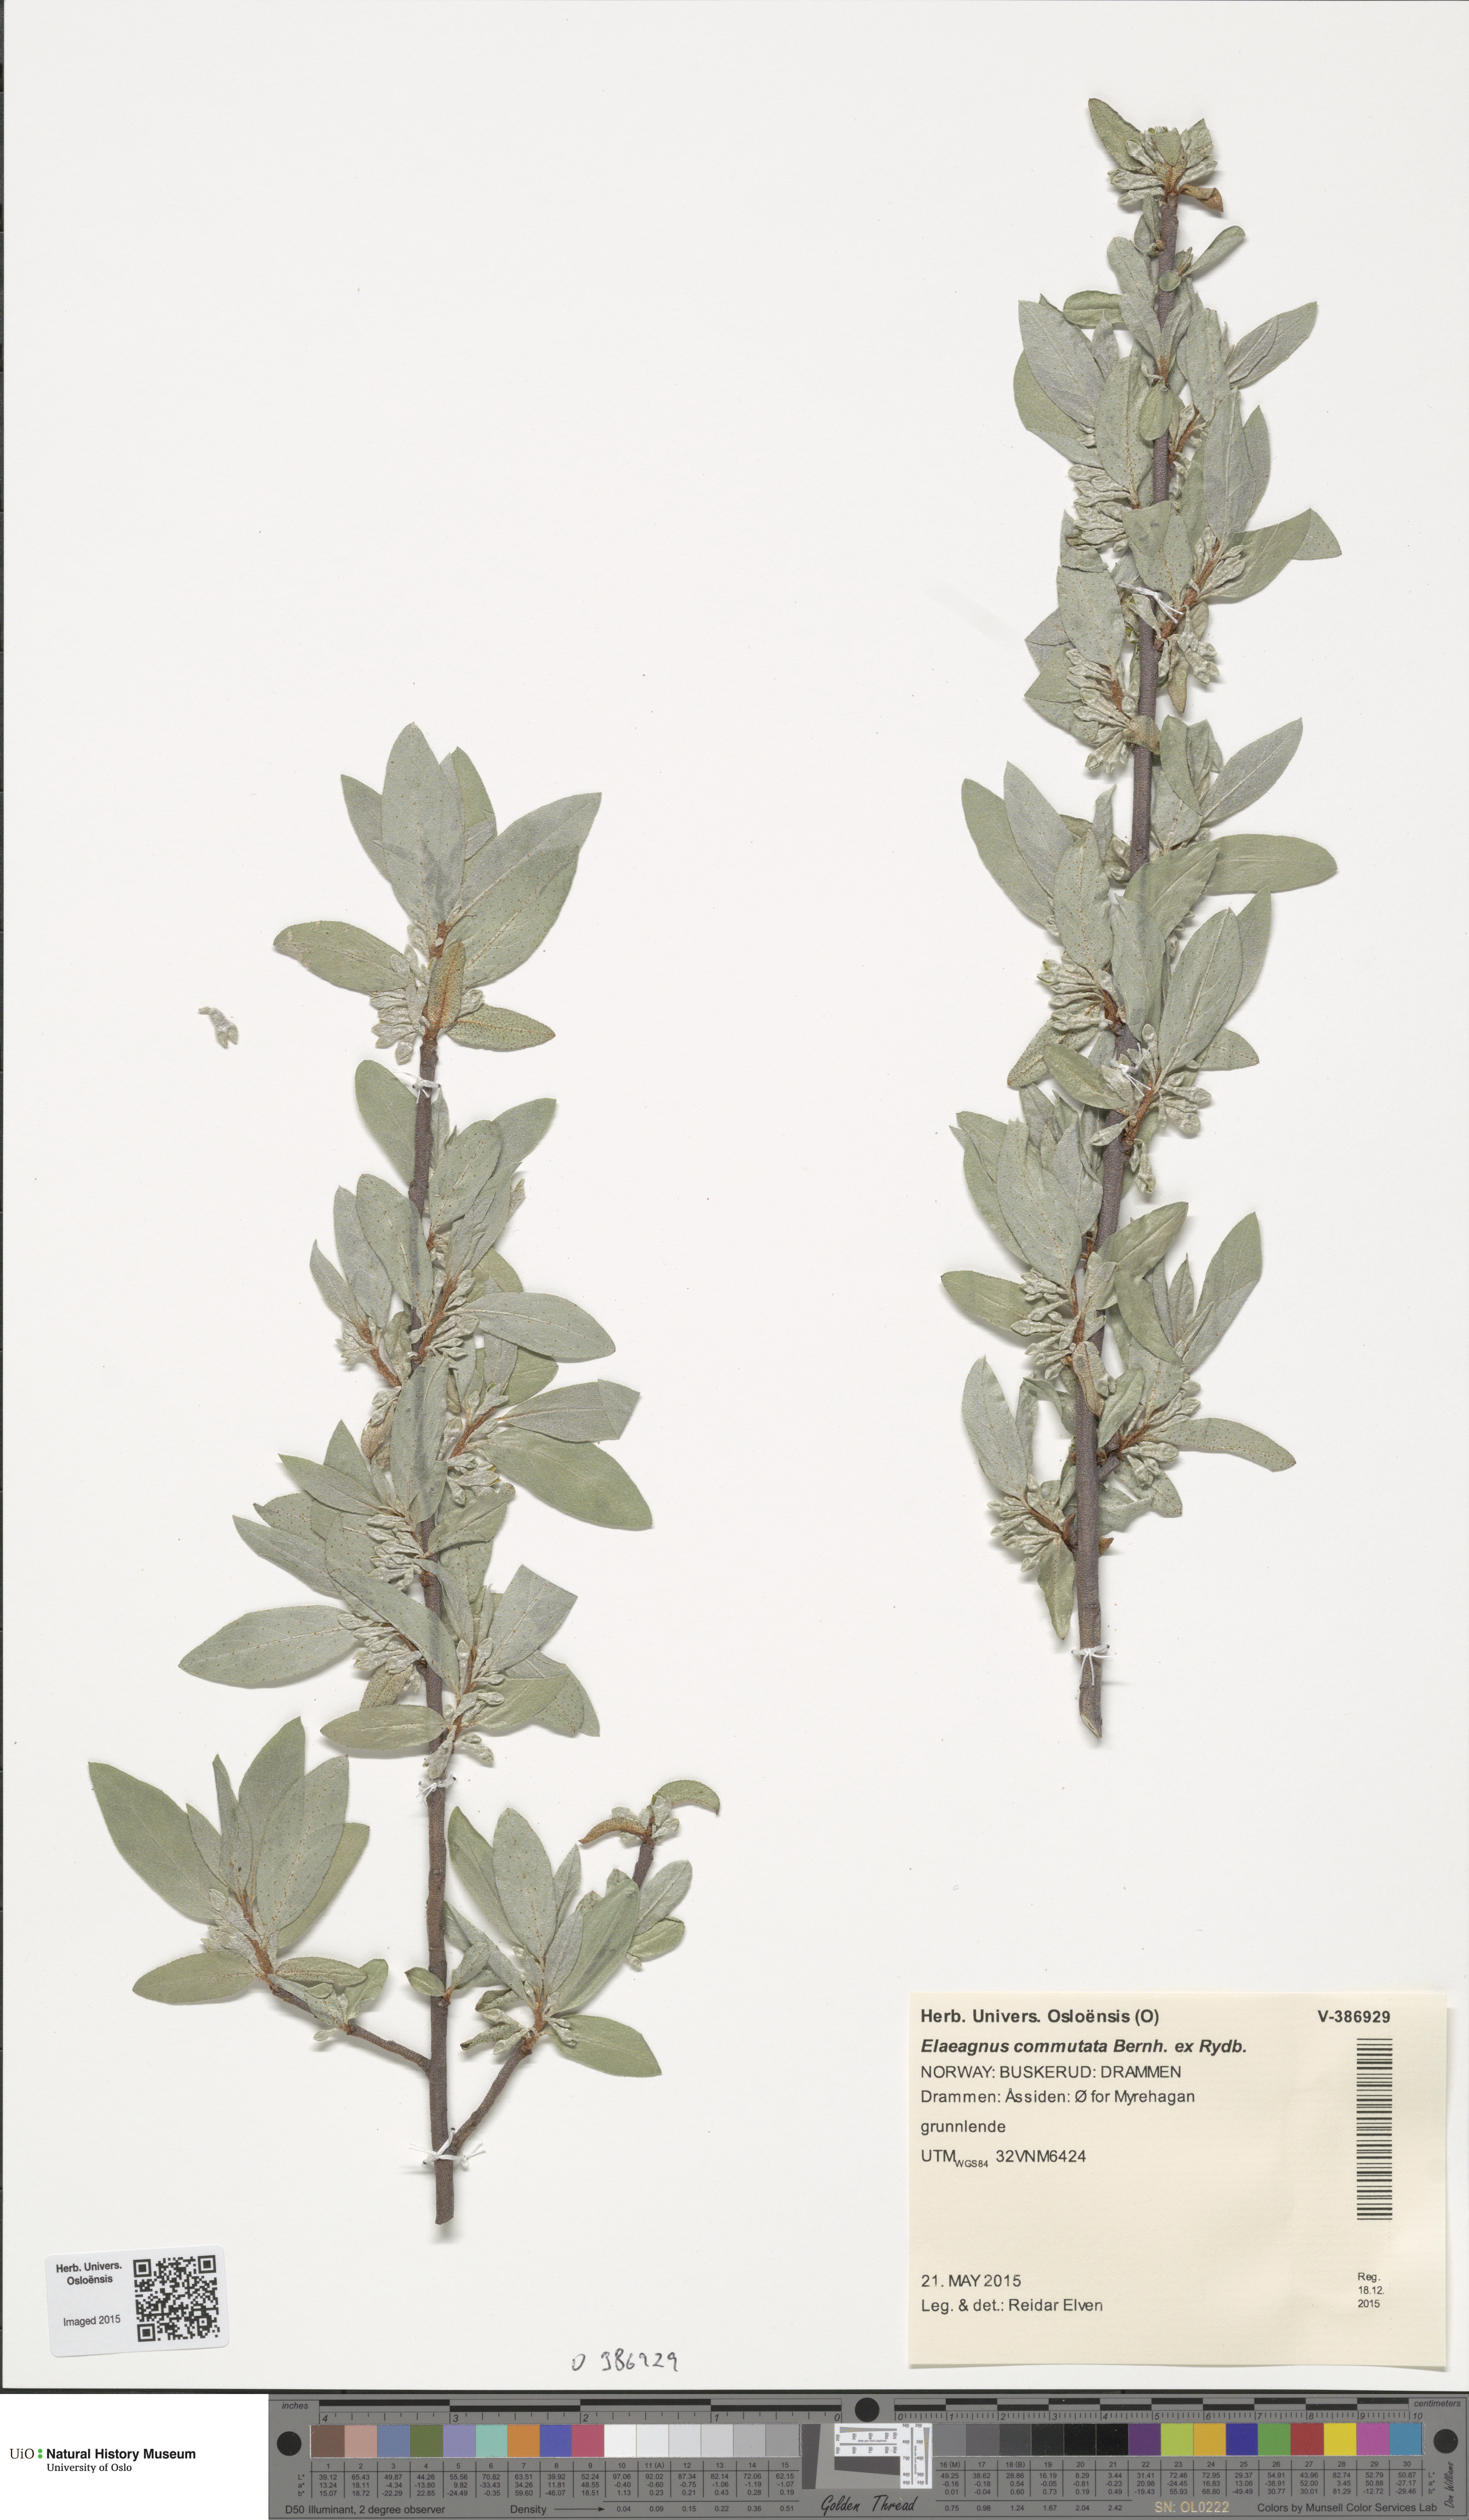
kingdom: Plantae
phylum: Tracheophyta
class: Magnoliopsida
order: Rosales
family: Elaeagnaceae
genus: Elaeagnus
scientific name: Elaeagnus commutata
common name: Silverberry
